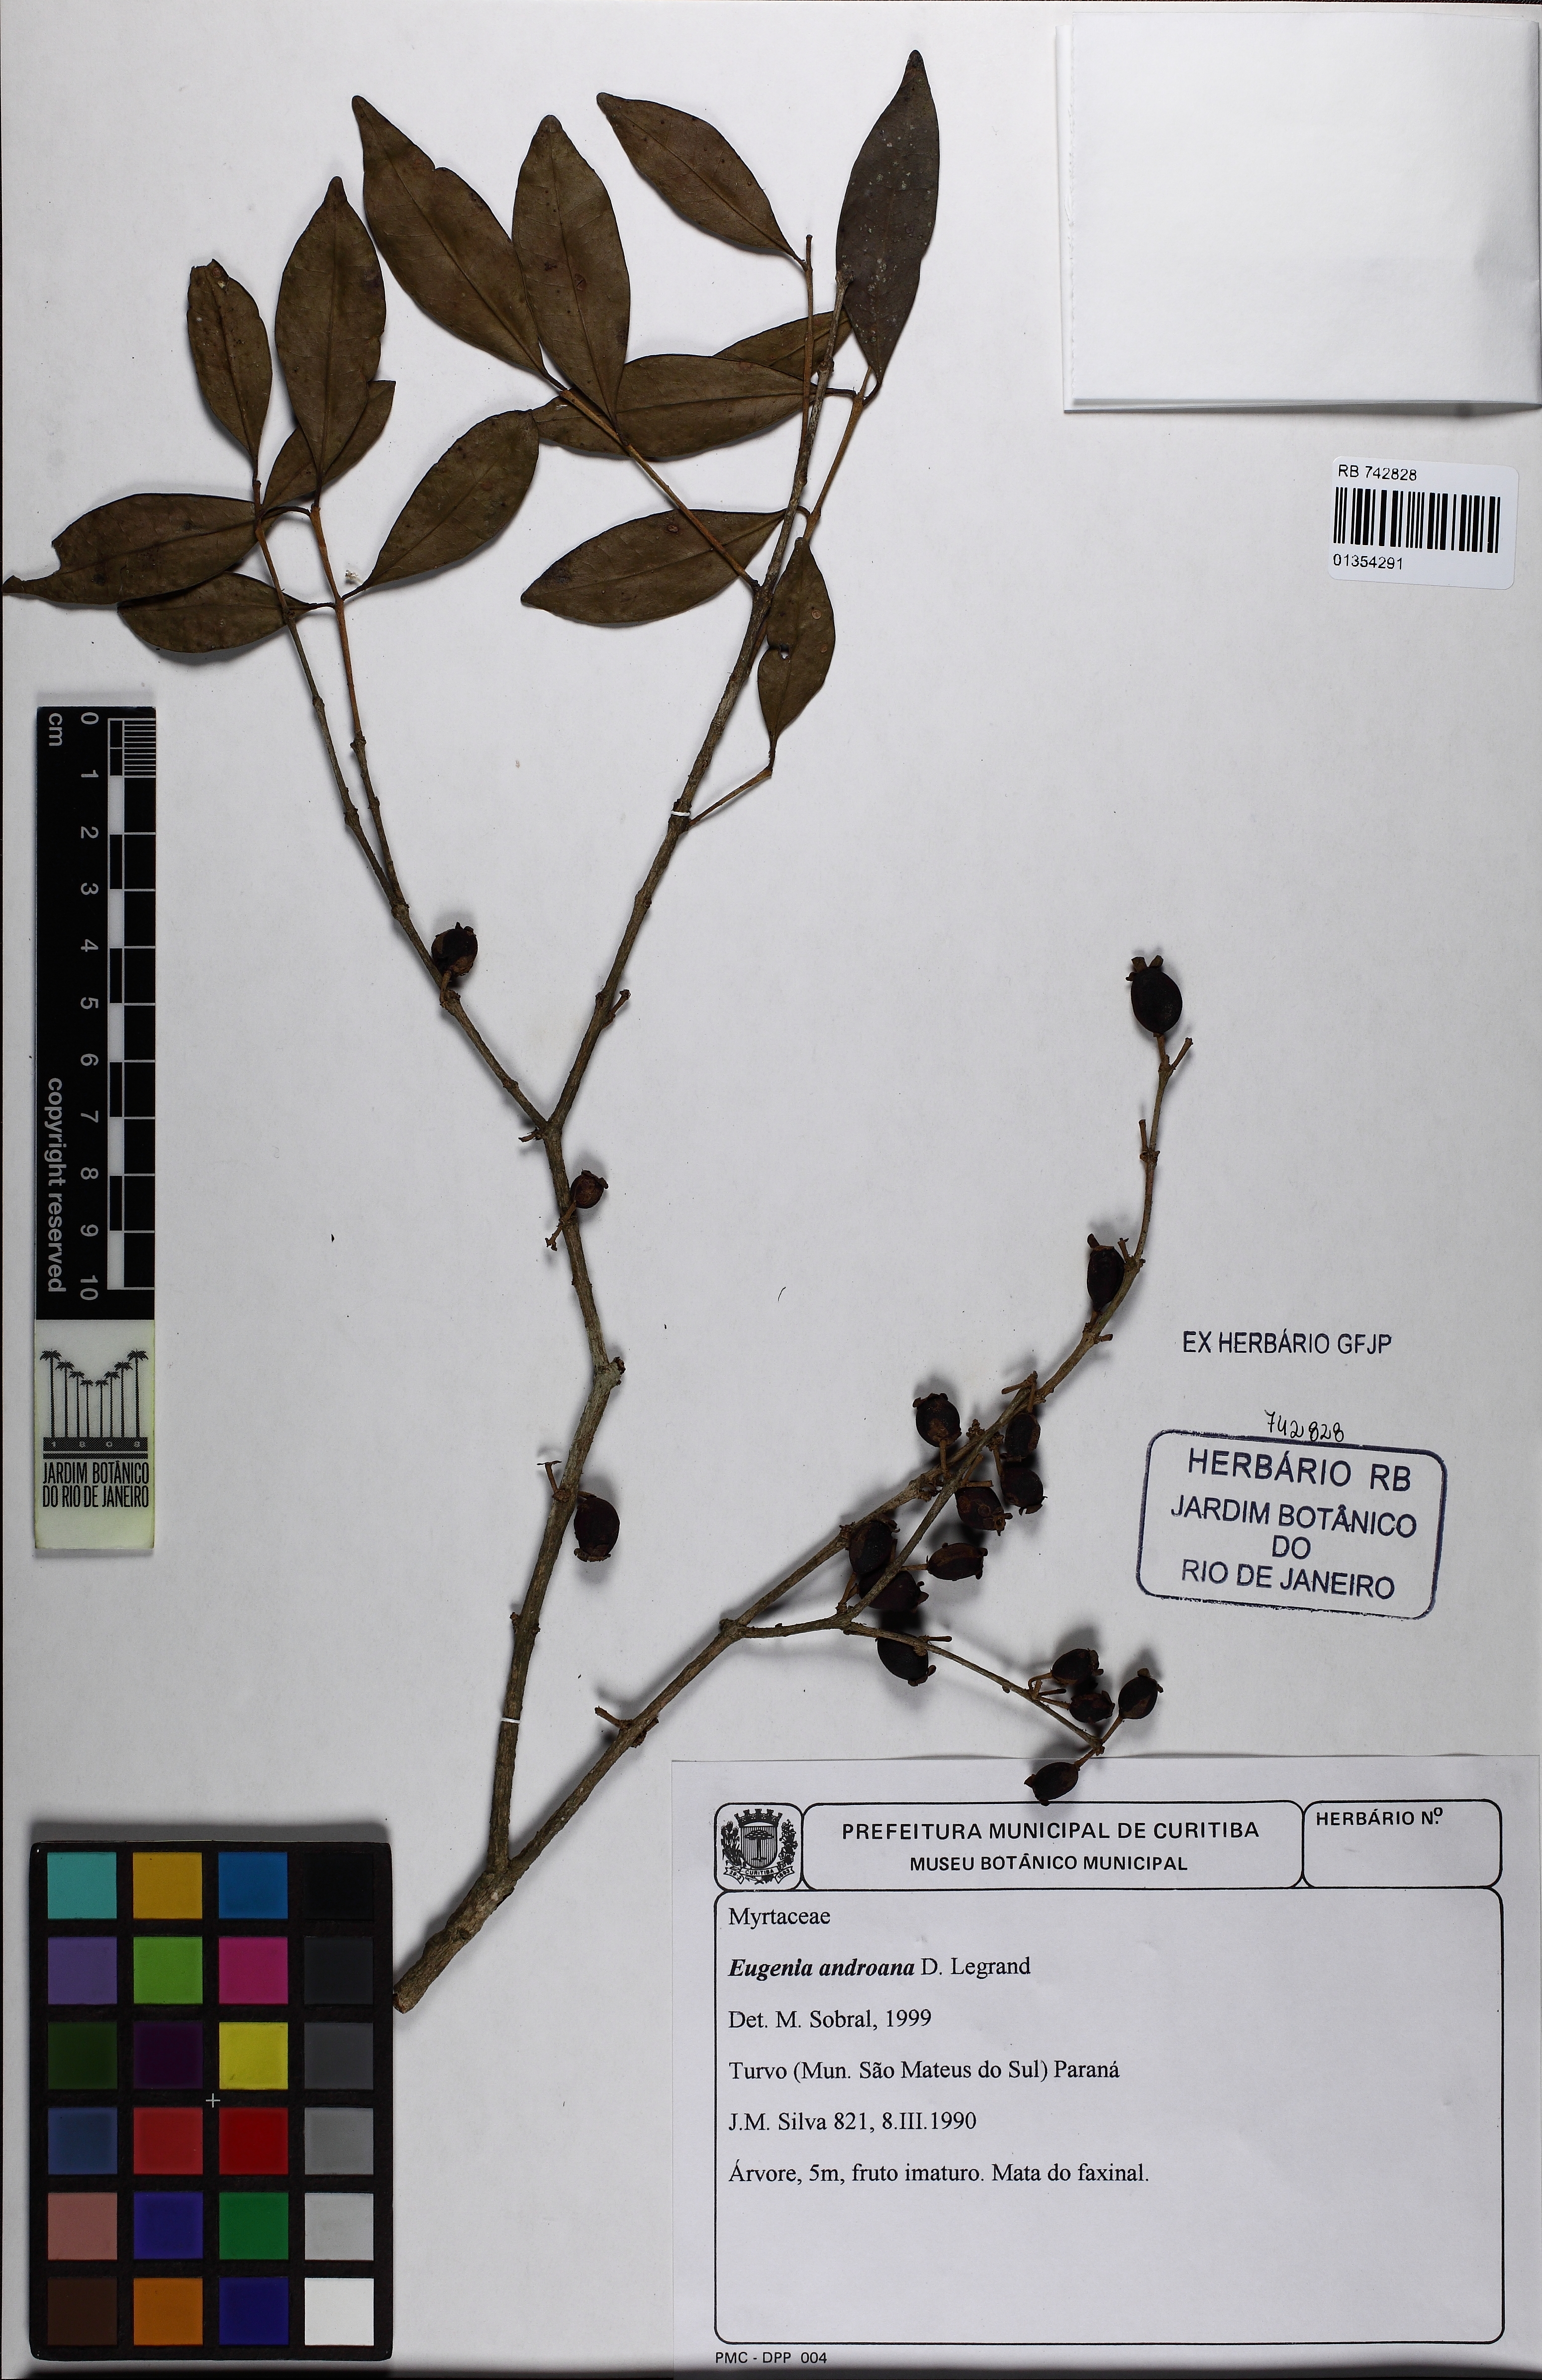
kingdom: Plantae
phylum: Tracheophyta
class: Magnoliopsida
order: Myrtales
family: Myrtaceae
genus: Eugenia
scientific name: Eugenia handroana
